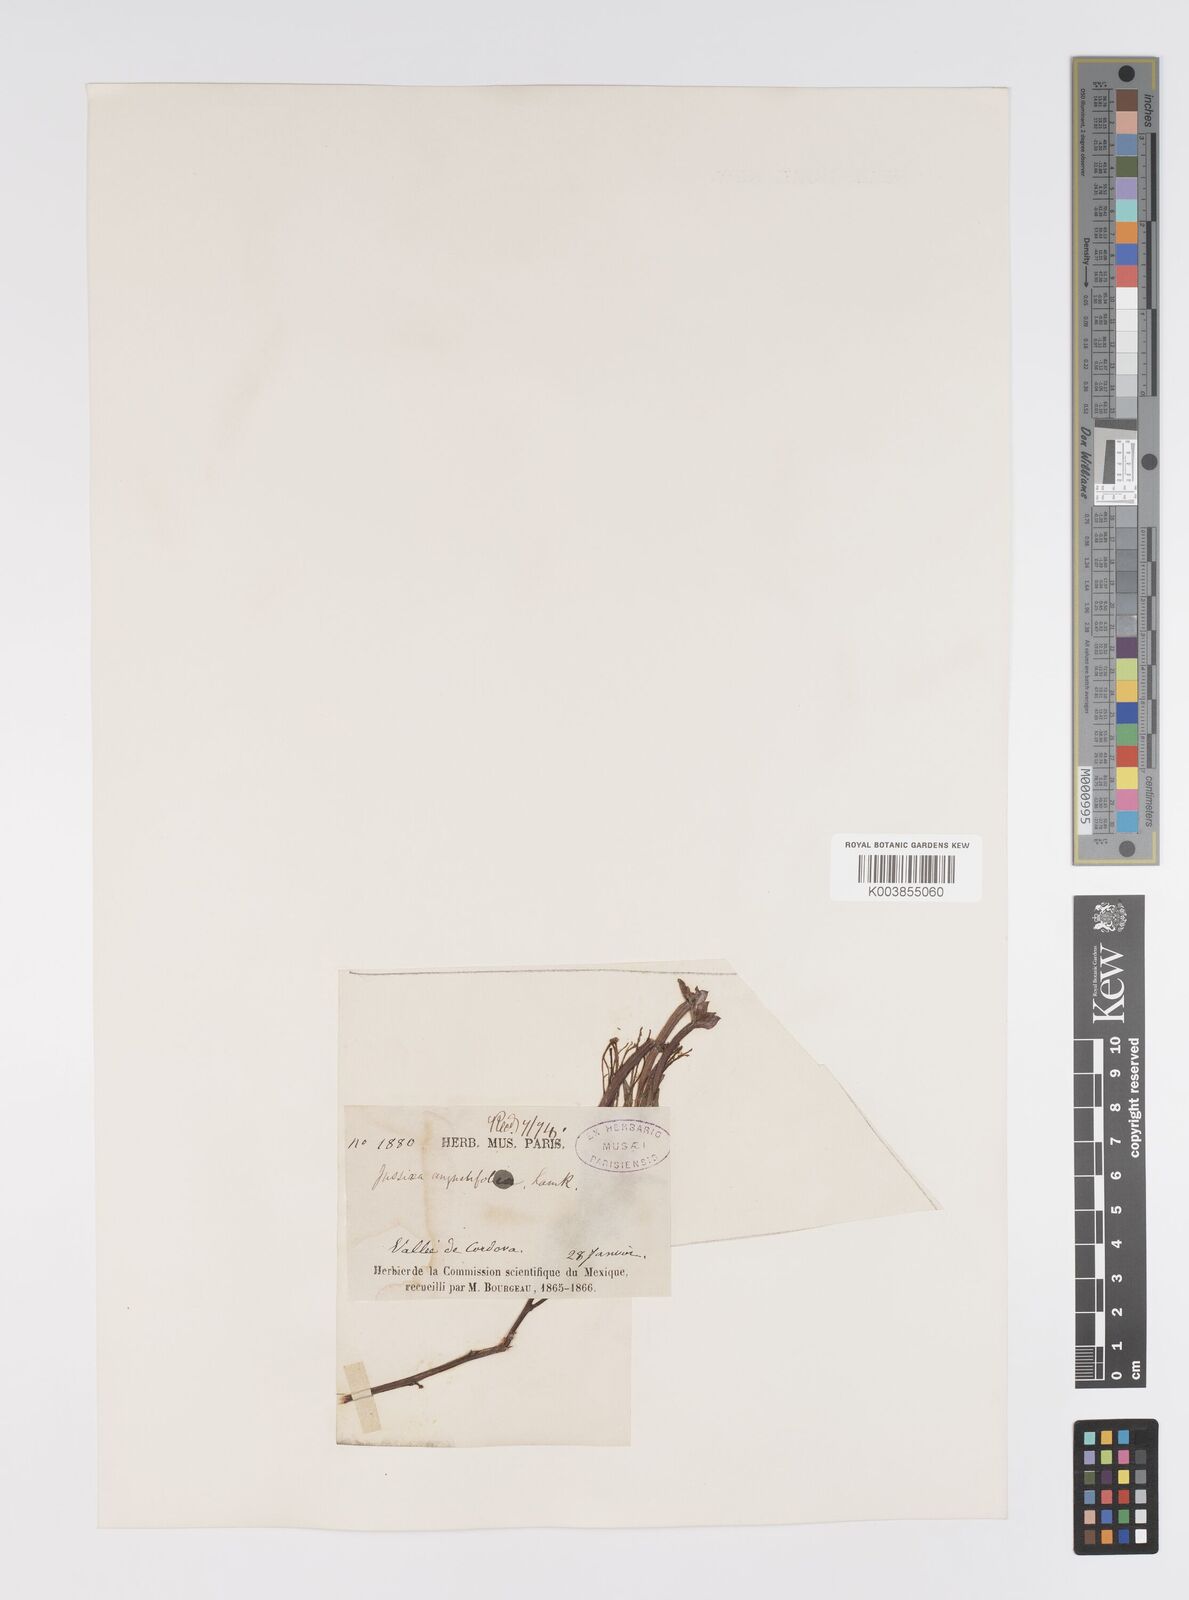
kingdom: Plantae
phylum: Tracheophyta
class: Magnoliopsida
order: Myrtales
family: Onagraceae
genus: Ludwigia
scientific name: Ludwigia octovalvis
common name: Water-primrose
